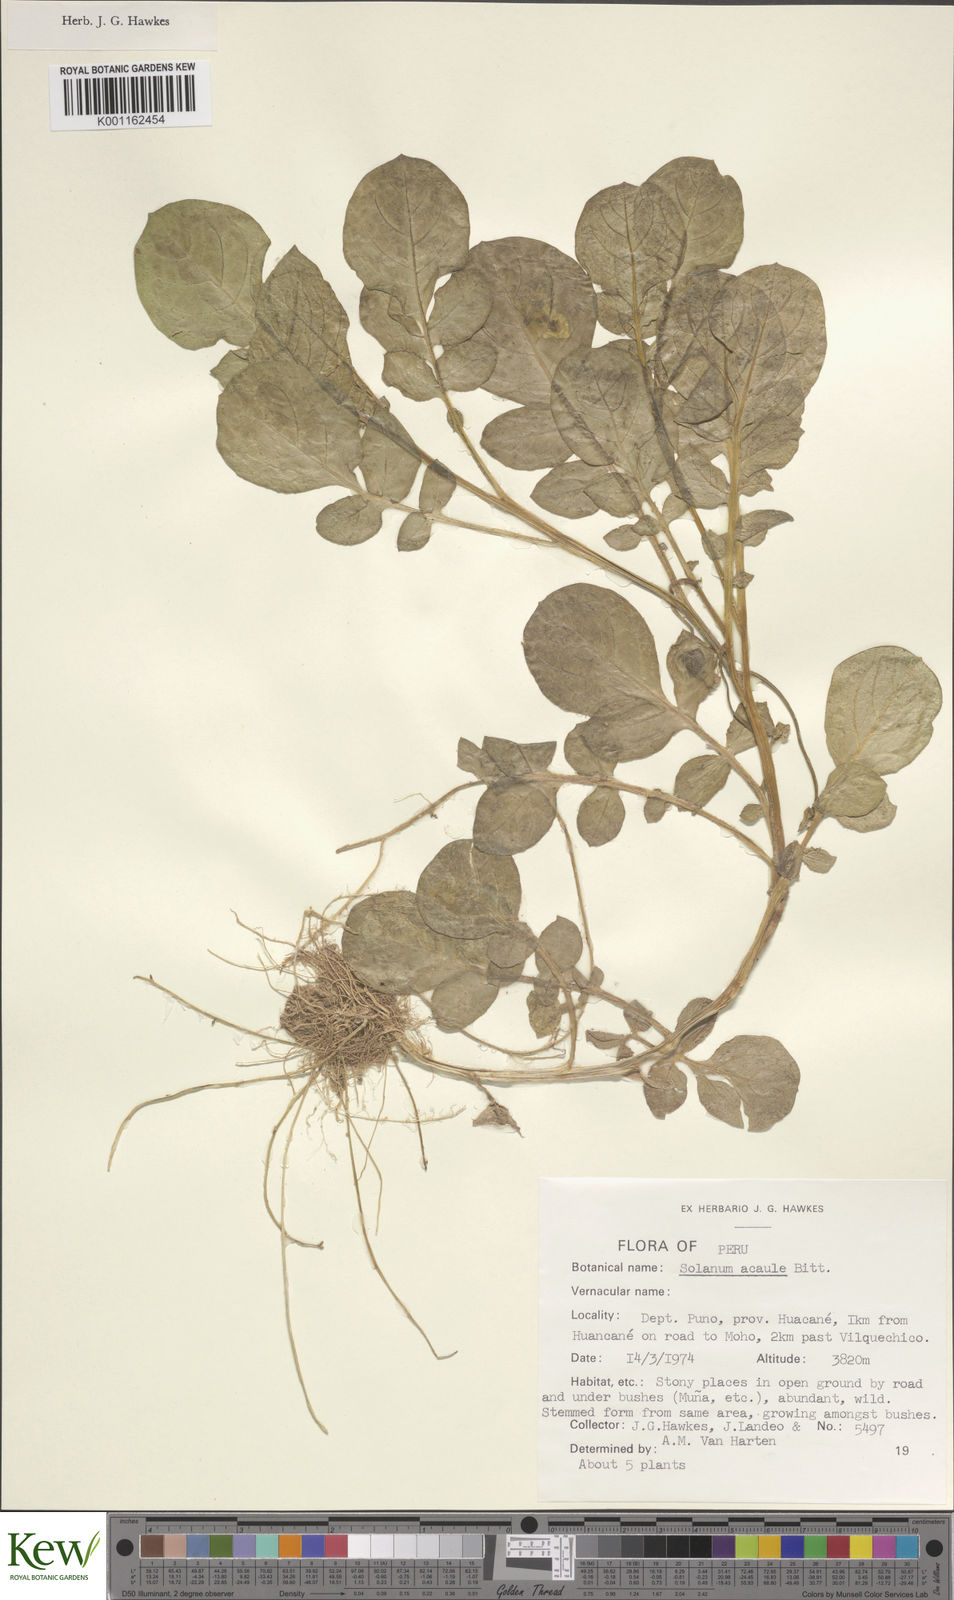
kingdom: Plantae
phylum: Tracheophyta
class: Magnoliopsida
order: Solanales
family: Solanaceae
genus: Solanum
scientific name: Solanum acaule
